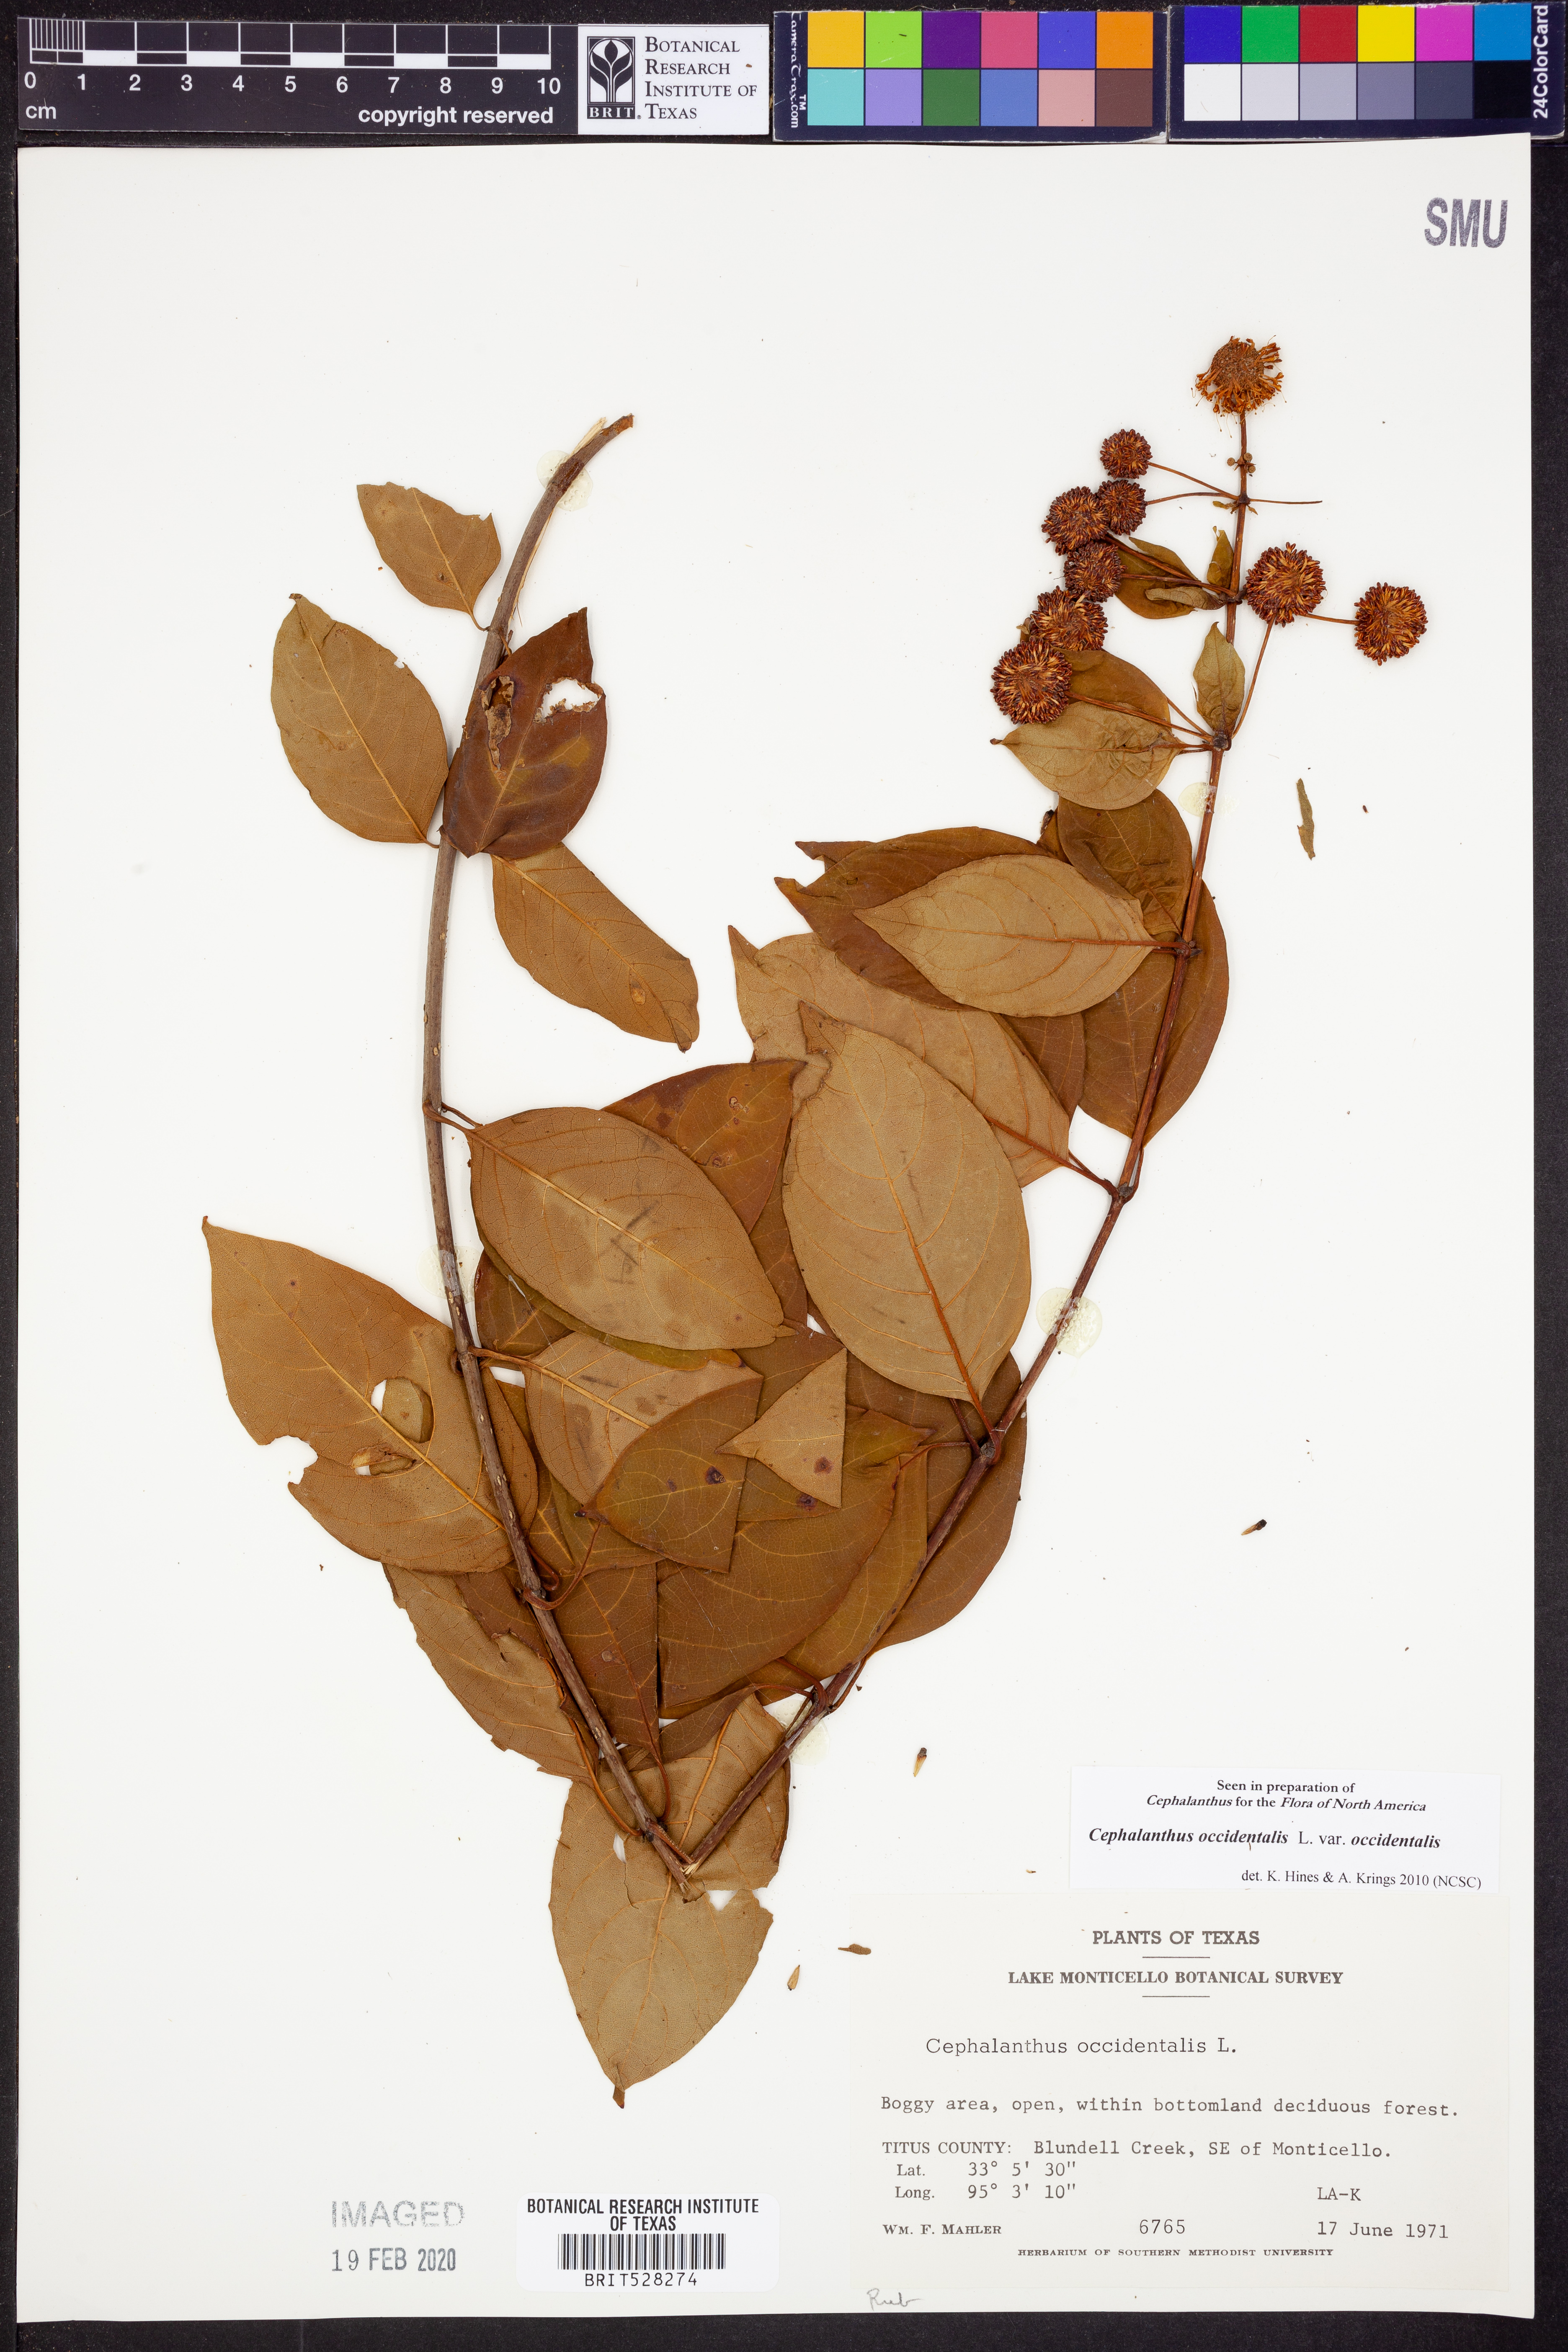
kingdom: Plantae
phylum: Tracheophyta
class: Magnoliopsida
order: Gentianales
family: Rubiaceae
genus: Cephalanthus
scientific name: Cephalanthus occidentalis
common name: Button-willow
